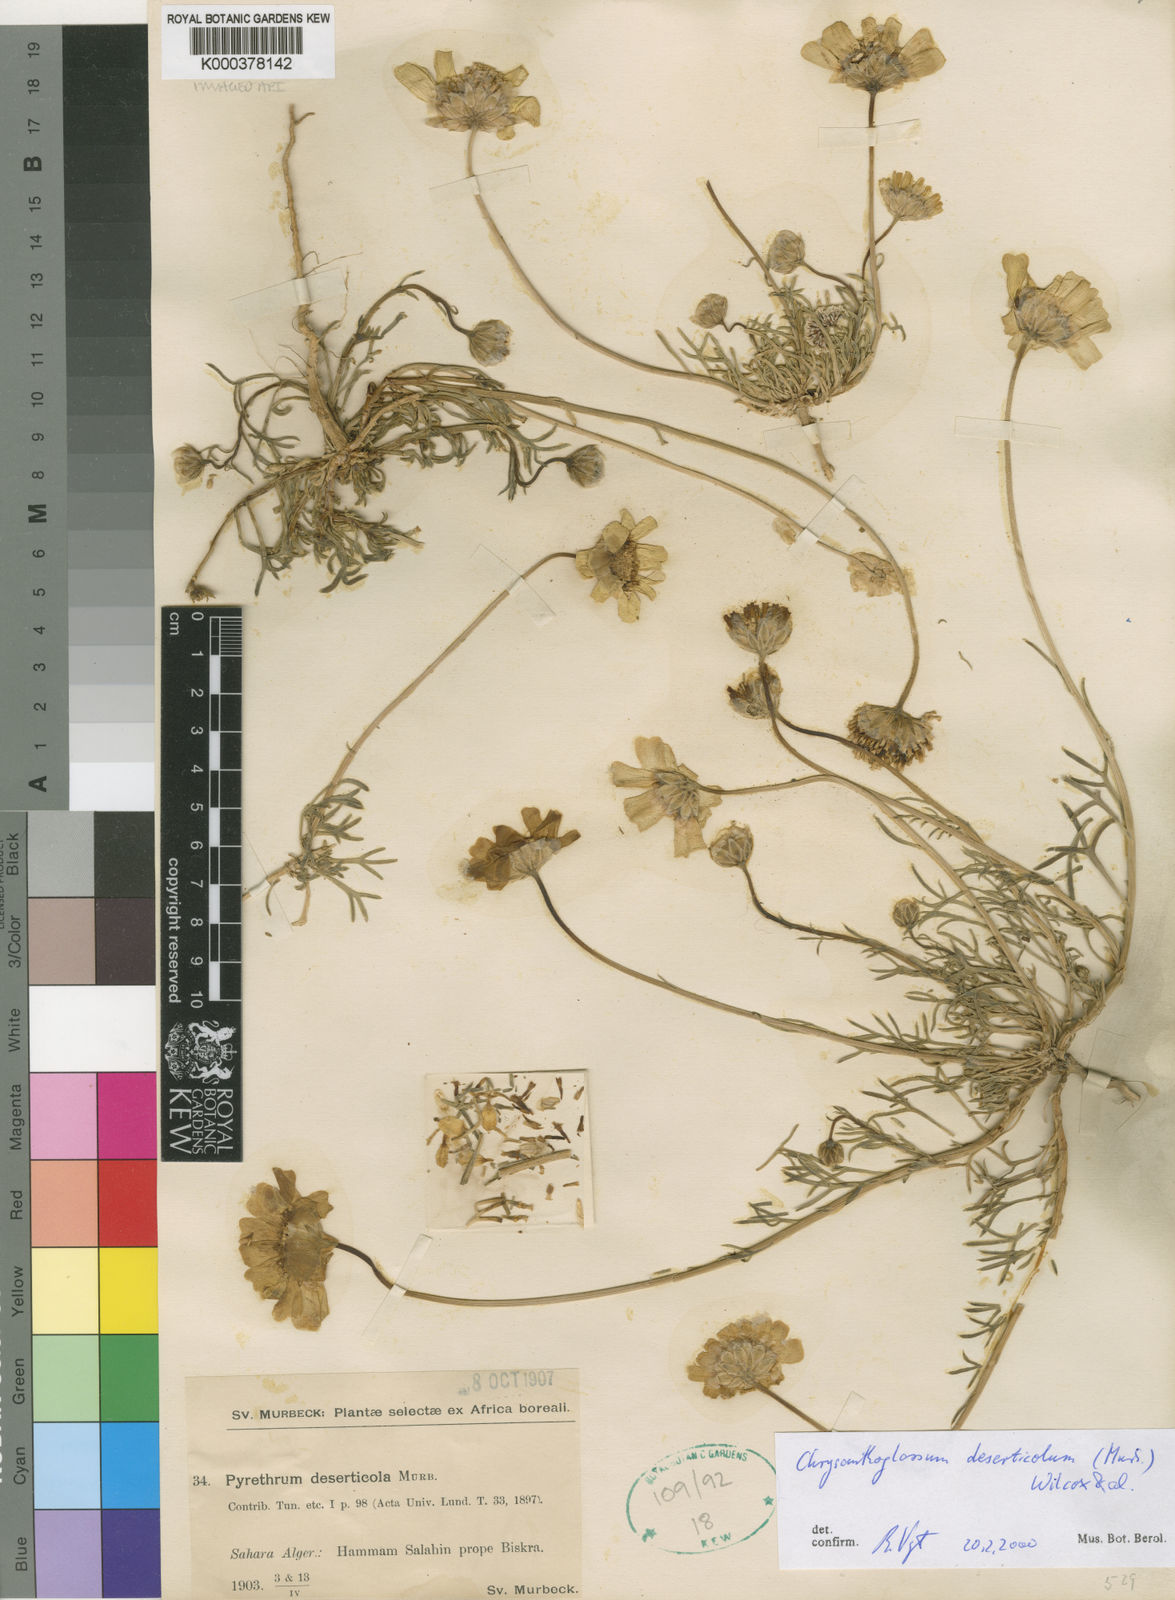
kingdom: Plantae
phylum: Tracheophyta
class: Magnoliopsida
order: Asterales
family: Asteraceae
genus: Chrysanthoglossum
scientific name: Chrysanthoglossum
